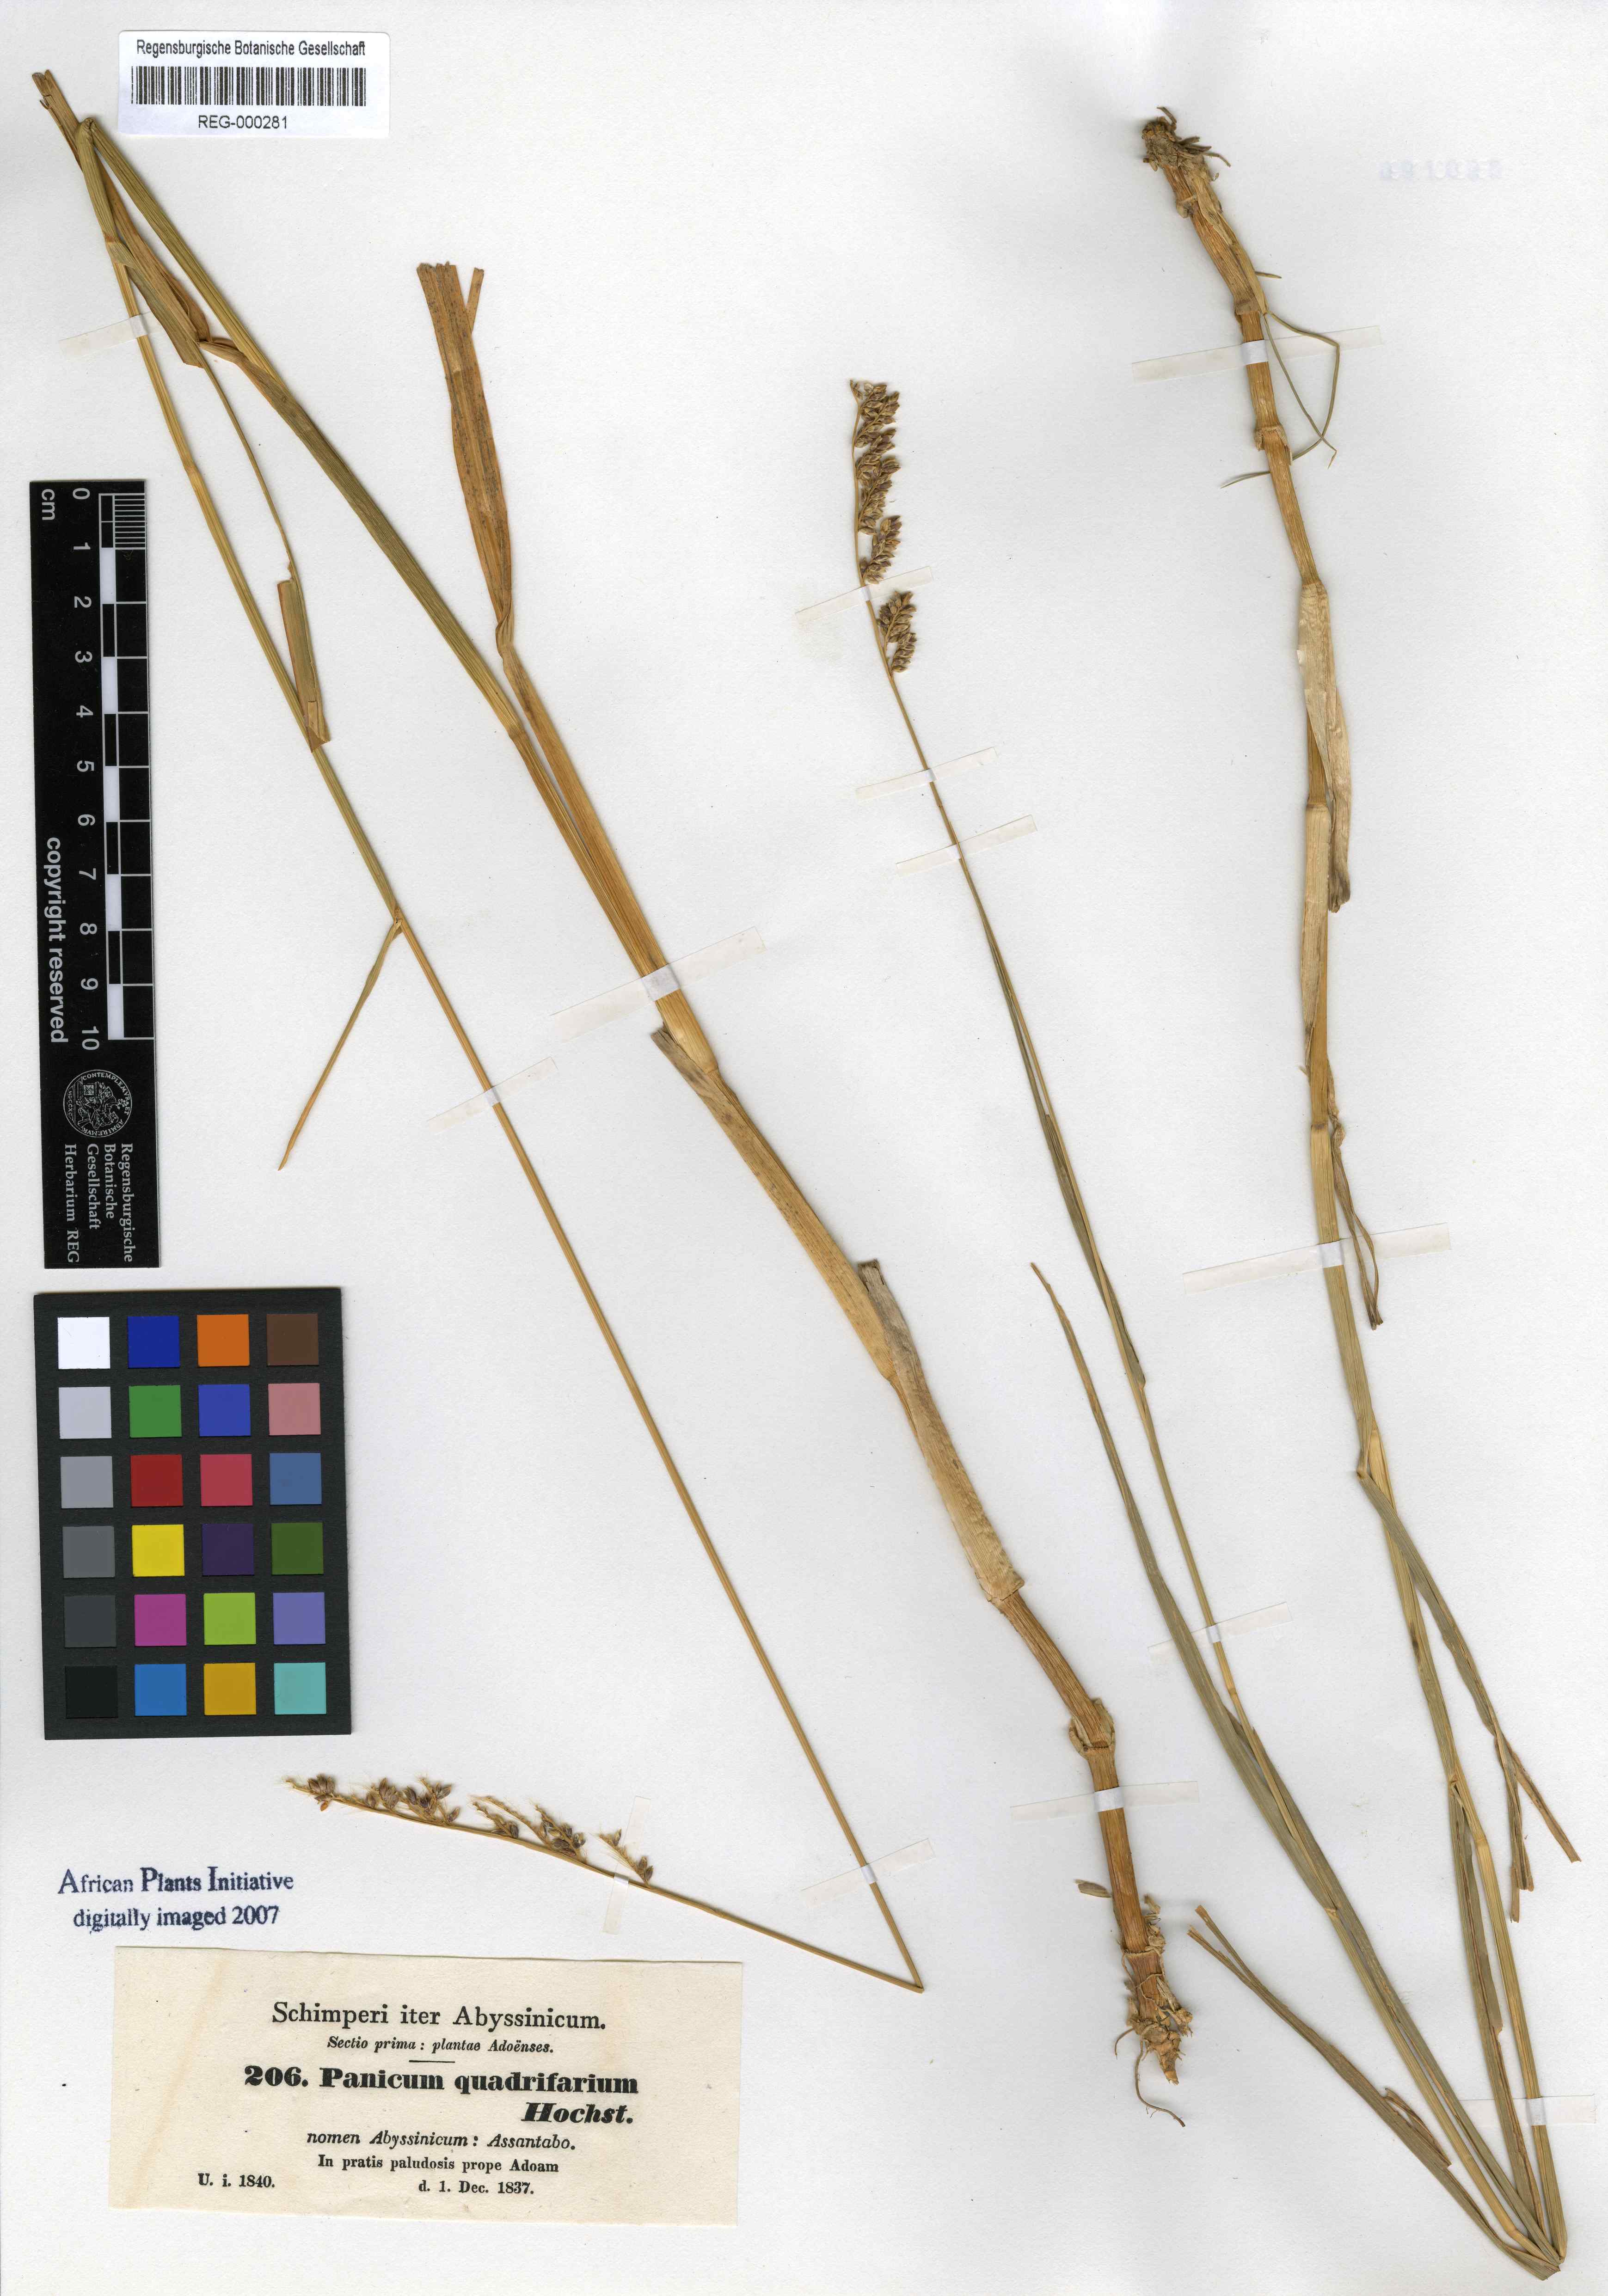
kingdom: Plantae
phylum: Tracheophyta
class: Liliopsida
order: Poales
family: Poaceae
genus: Panicum
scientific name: Panicum quadrifarium
